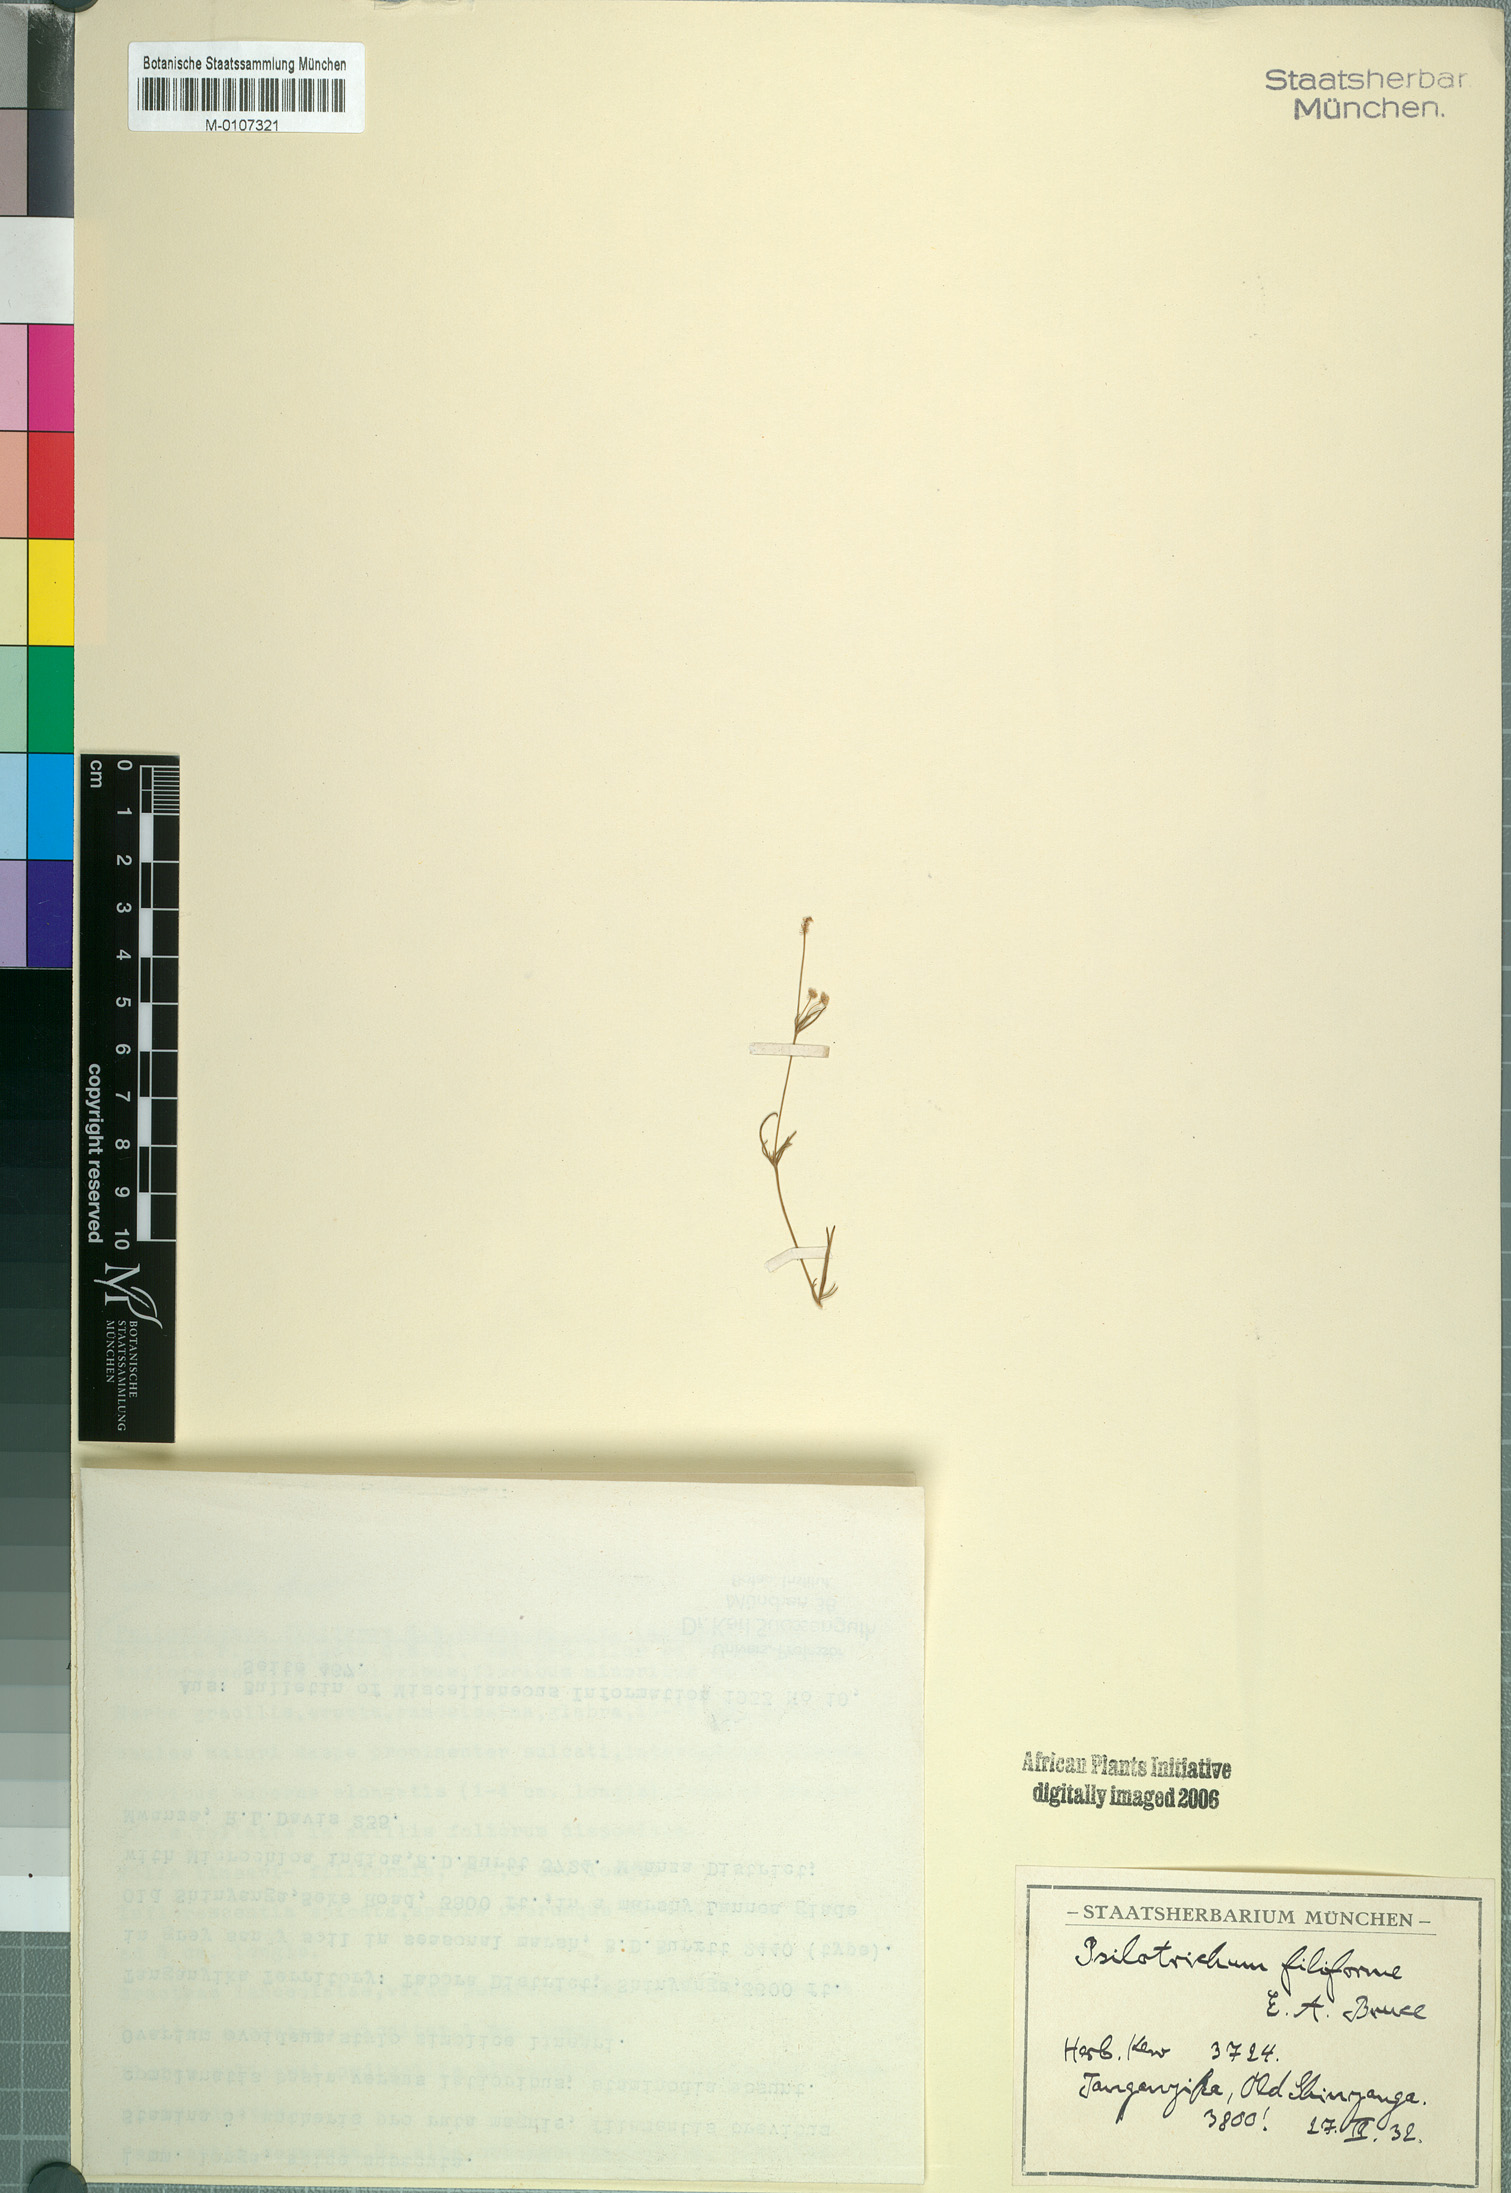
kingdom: Plantae
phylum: Tracheophyta
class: Magnoliopsida
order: Caryophyllales
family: Amaranthaceae
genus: Centemopsis
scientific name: Centemopsis filiformis
